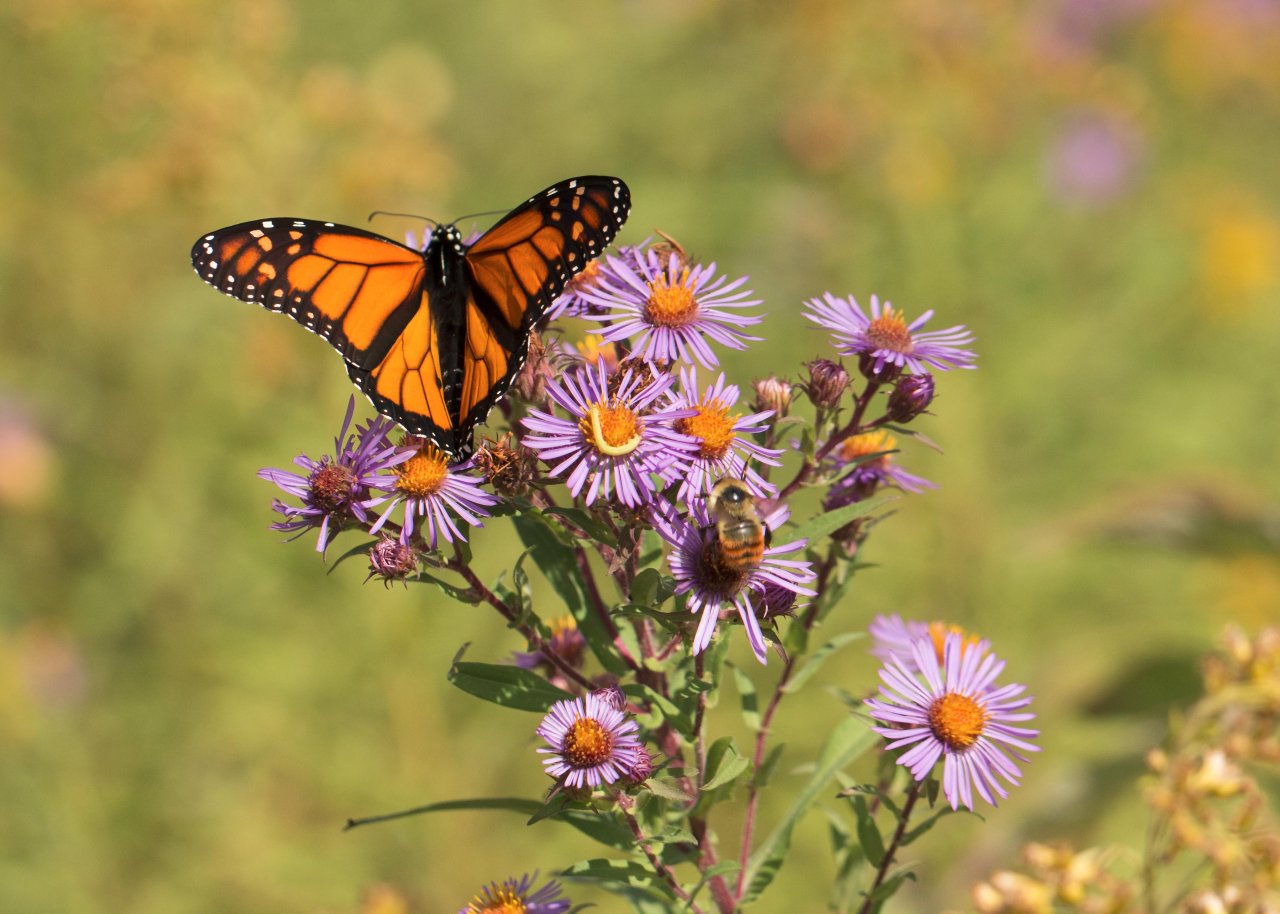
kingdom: Animalia
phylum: Arthropoda
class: Insecta
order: Lepidoptera
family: Nymphalidae
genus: Danaus
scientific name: Danaus plexippus
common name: Monarch
